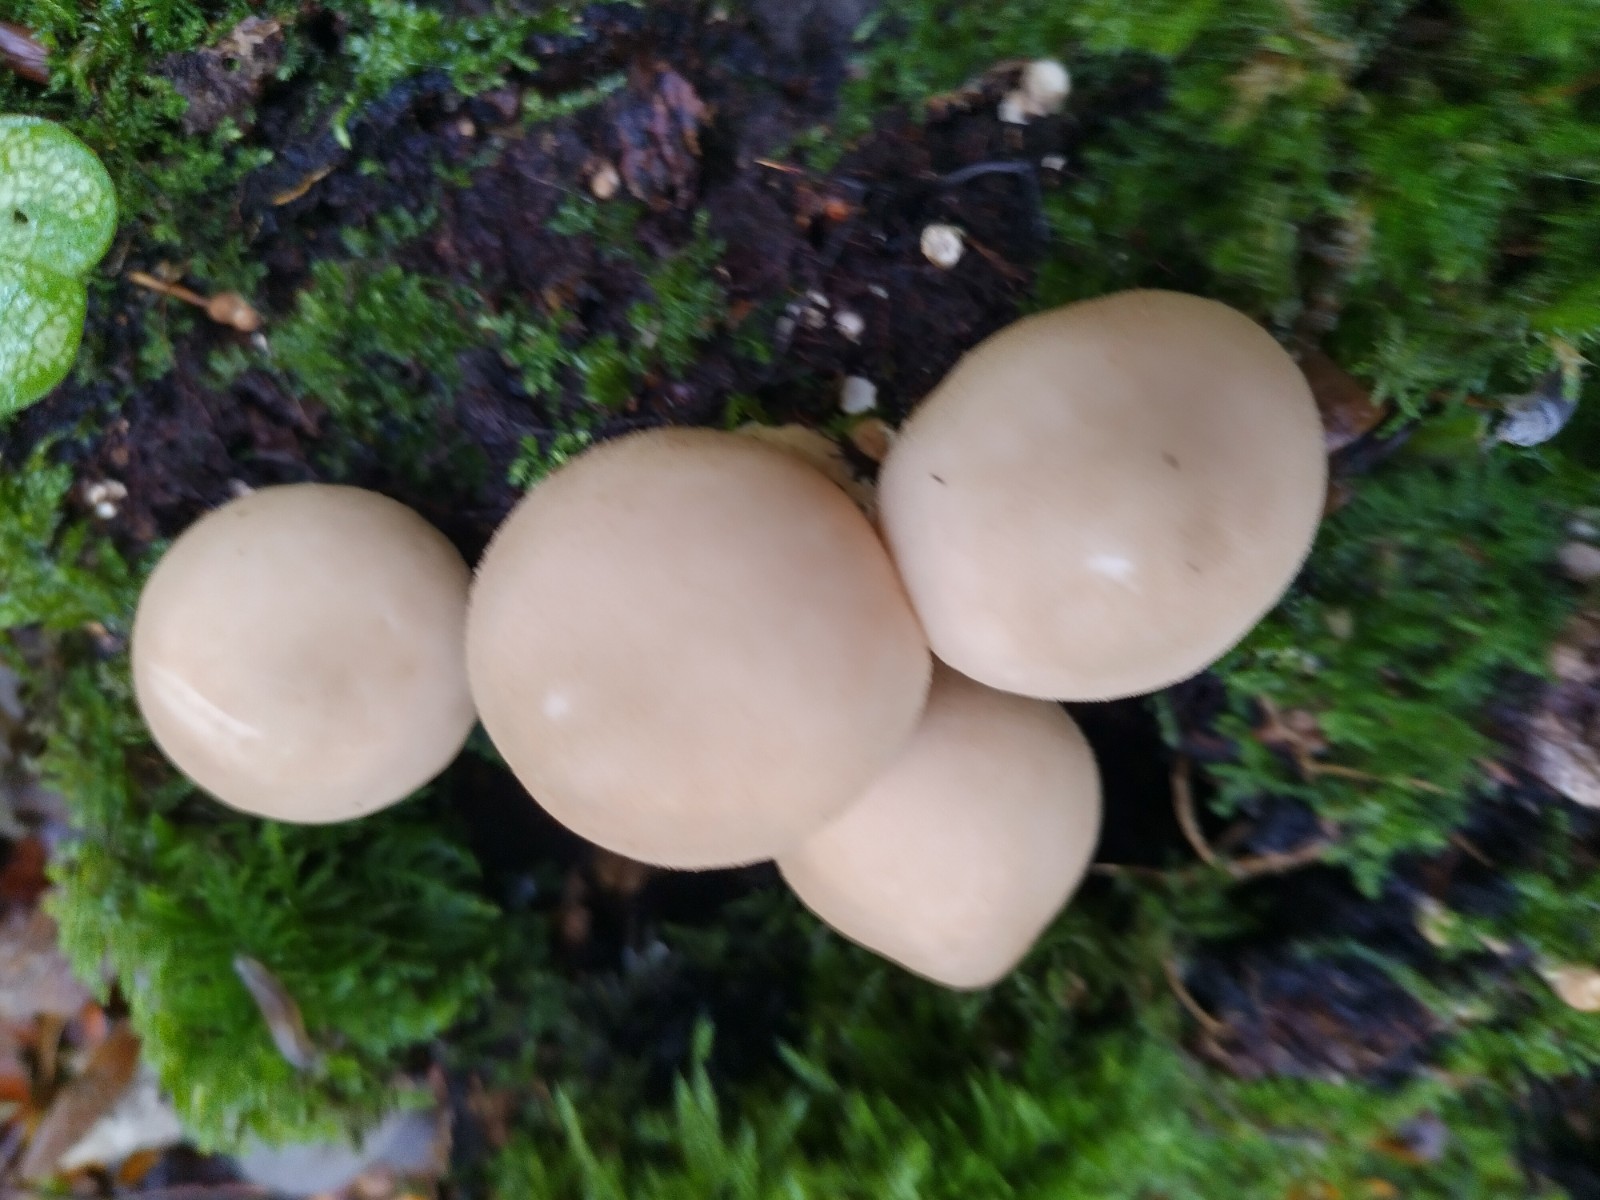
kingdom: Fungi
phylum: Basidiomycota
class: Agaricomycetes
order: Agaricales
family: Lycoperdaceae
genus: Apioperdon
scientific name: Apioperdon pyriforme
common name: pære-støvbold
